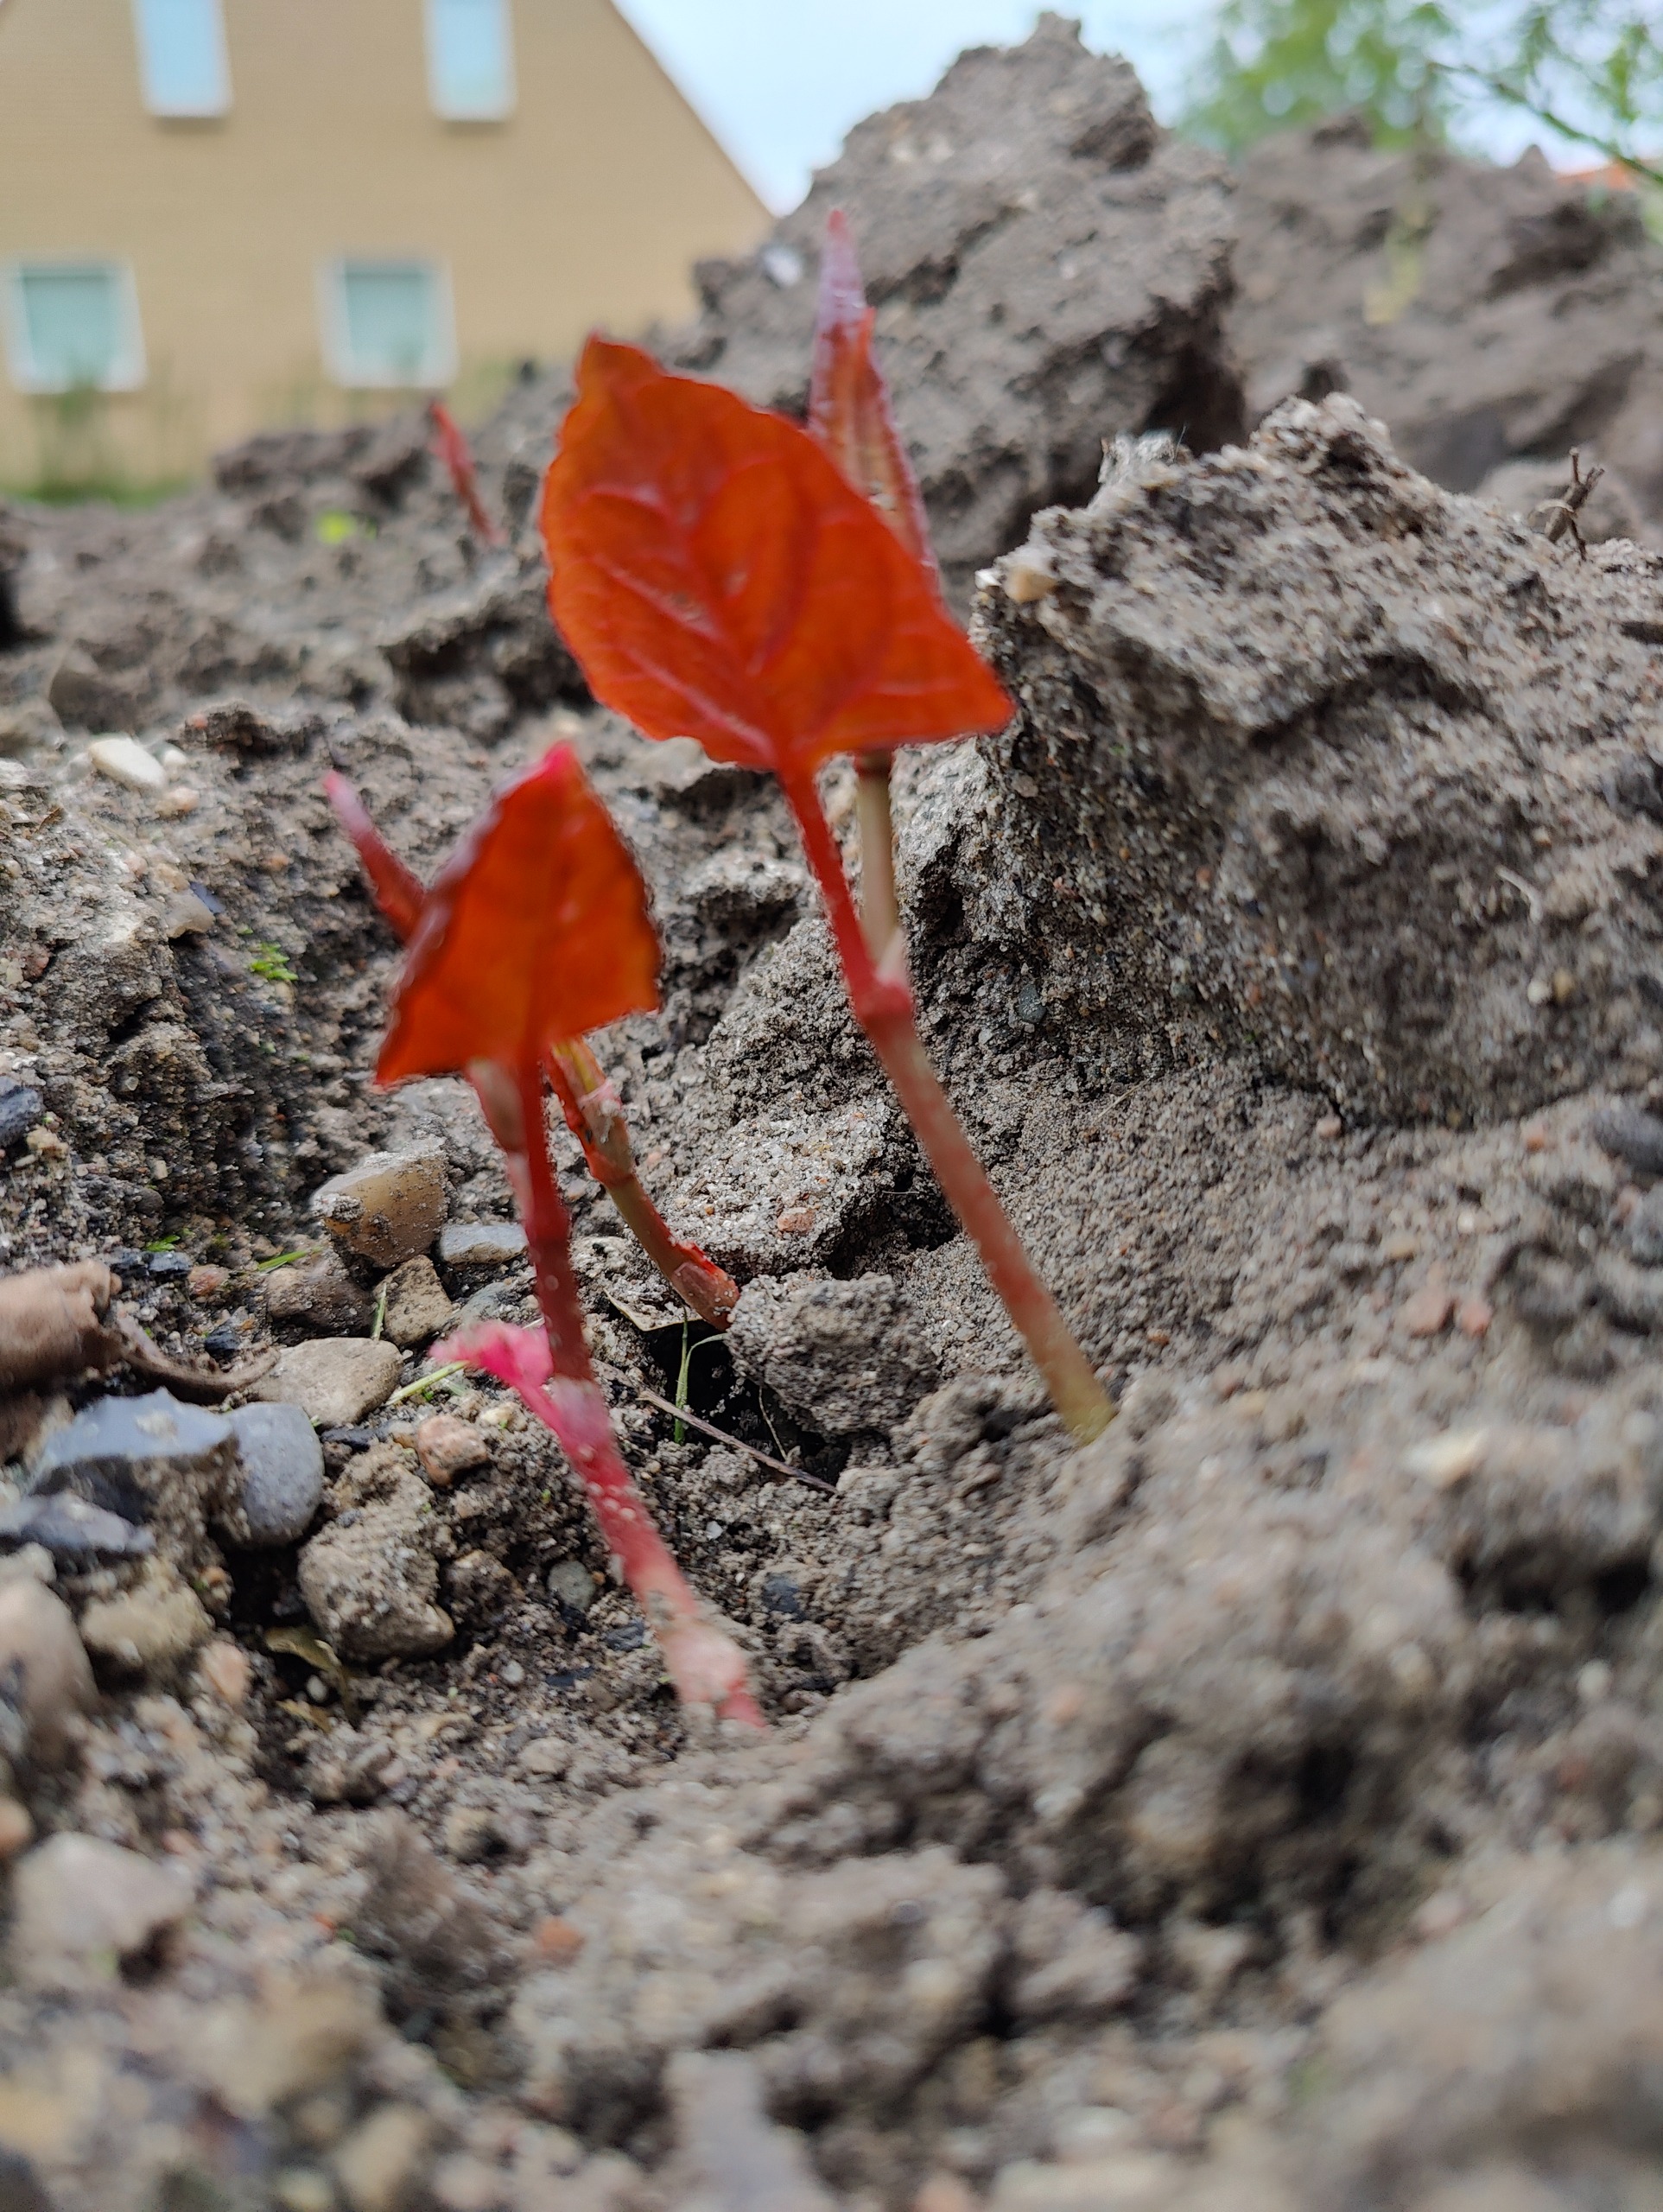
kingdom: Plantae
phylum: Tracheophyta
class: Magnoliopsida
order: Caryophyllales
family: Polygonaceae
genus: Reynoutria
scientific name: Reynoutria
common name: Pileurt (Reynoutria-slægten)
